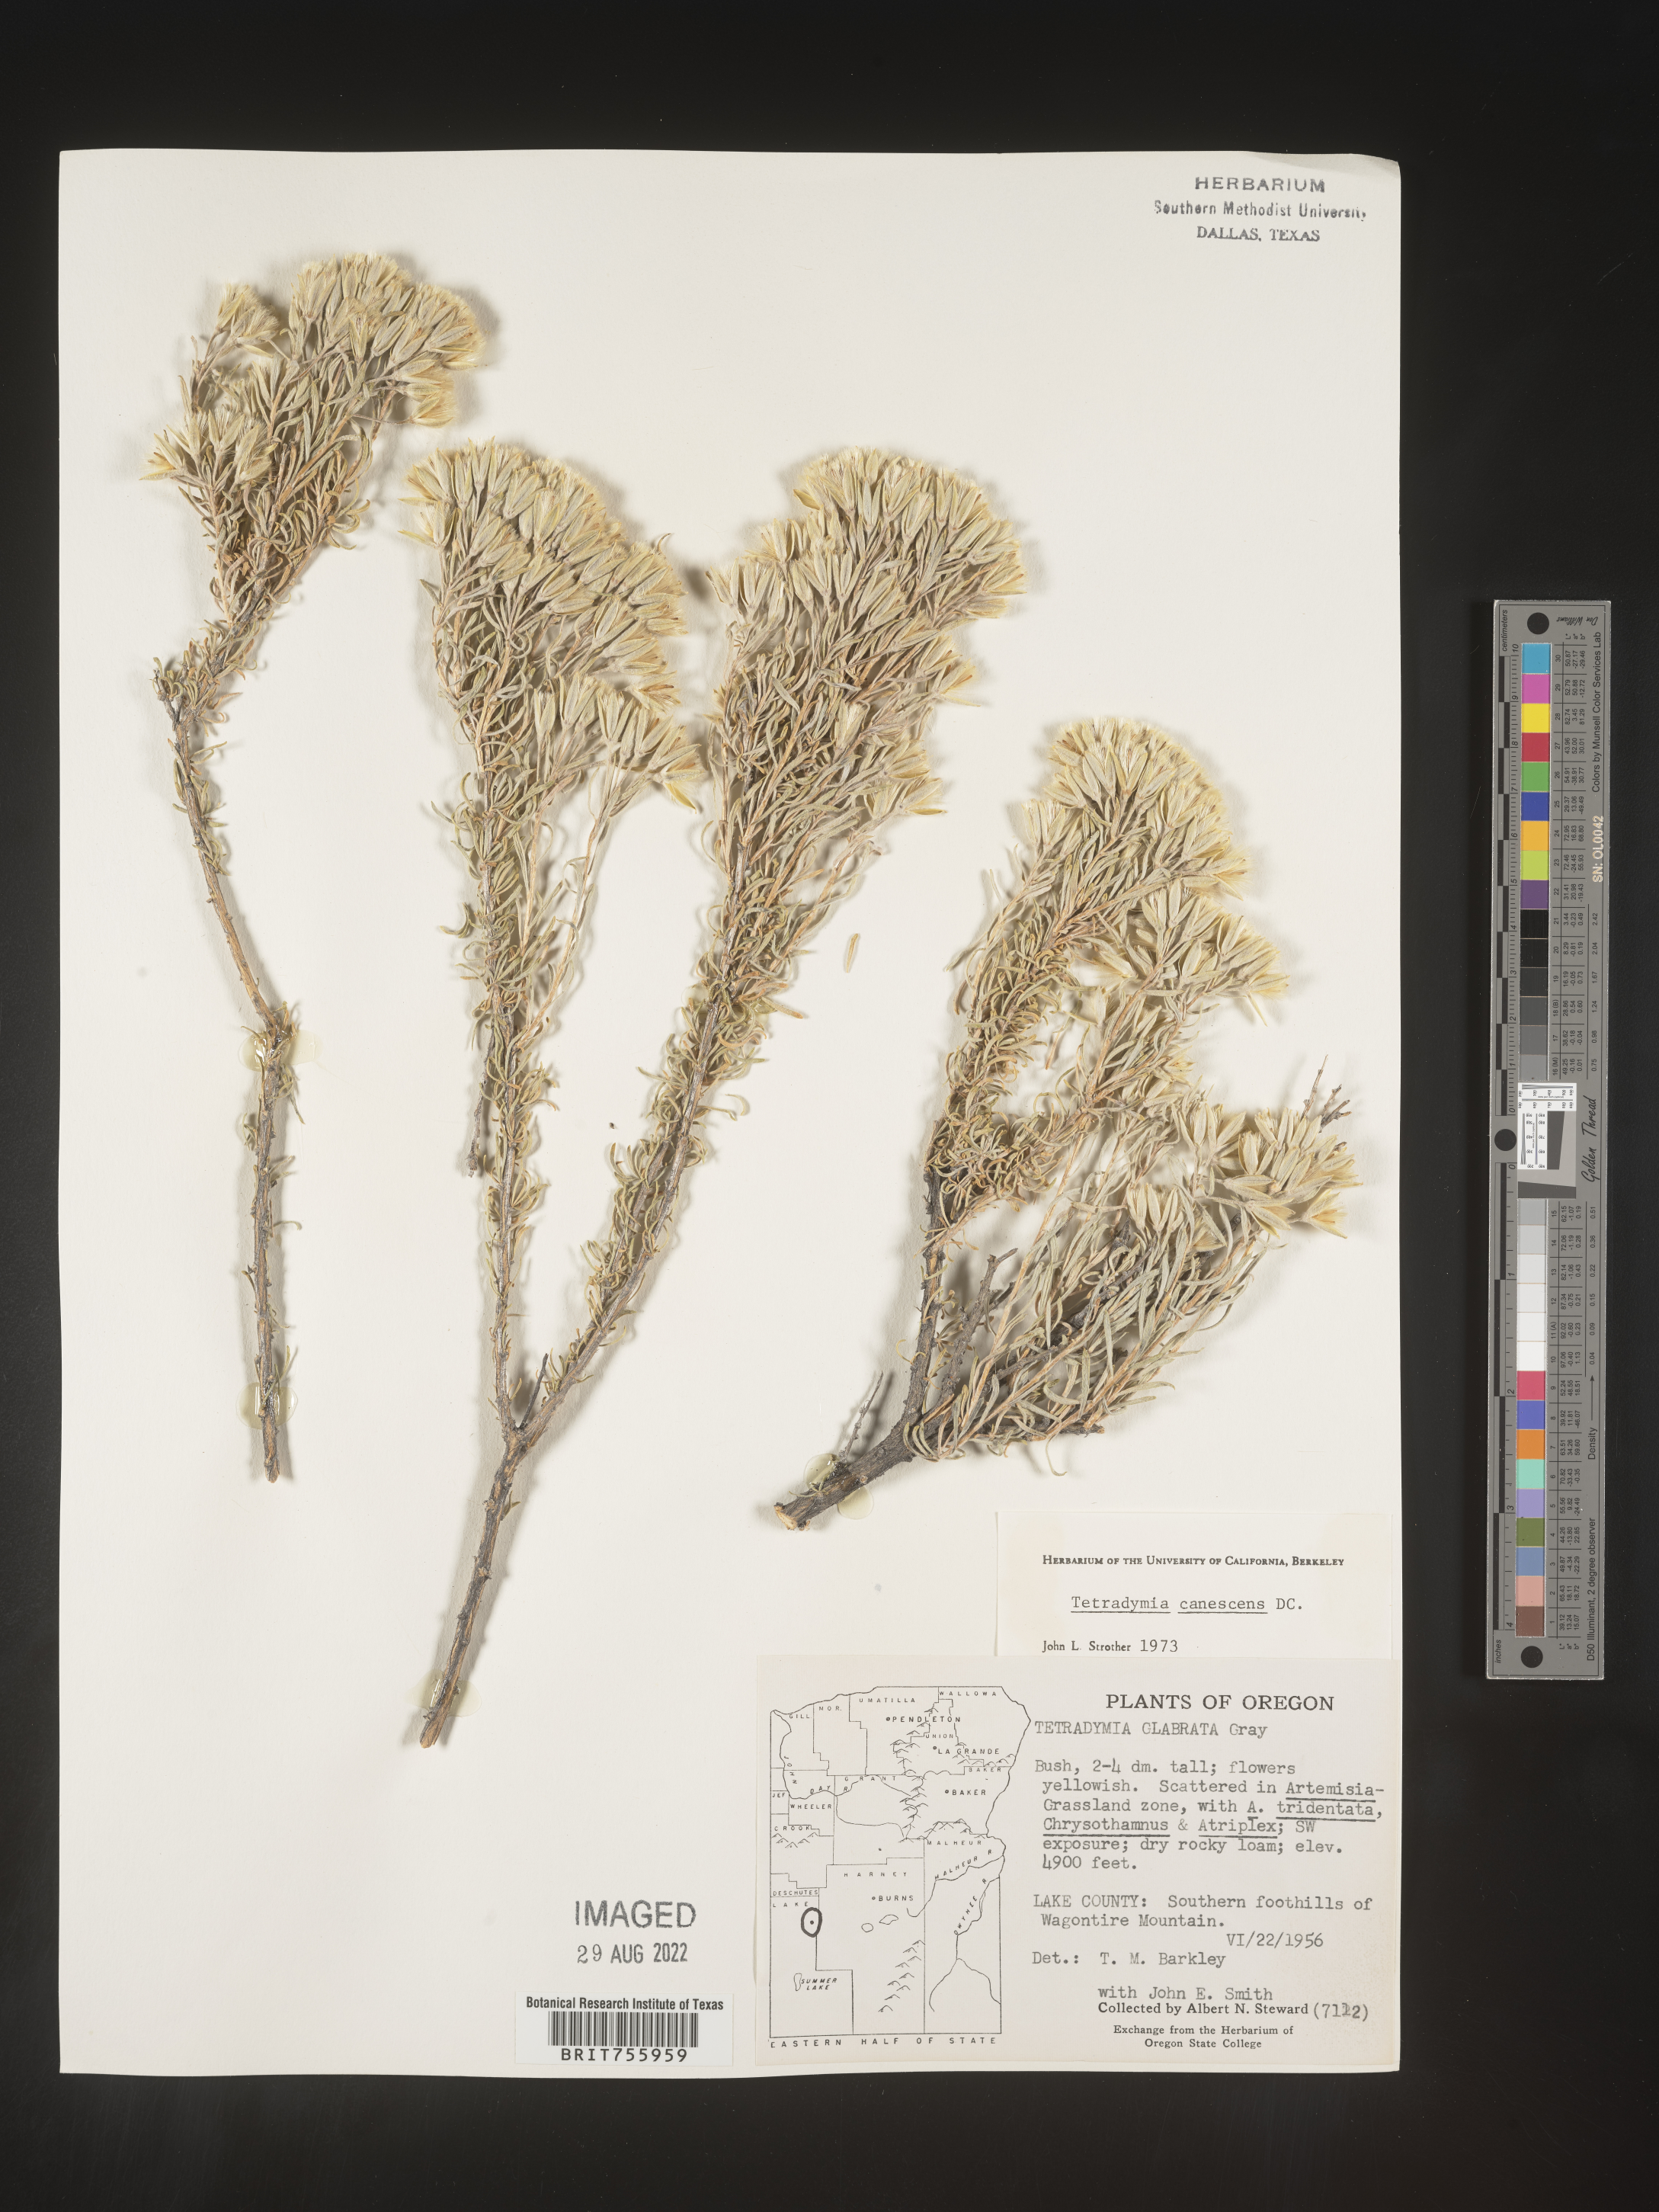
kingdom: Plantae
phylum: Tracheophyta
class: Magnoliopsida
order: Asterales
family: Asteraceae
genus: Tetradymia
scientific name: Tetradymia canescens
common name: Spineless horsebrush
